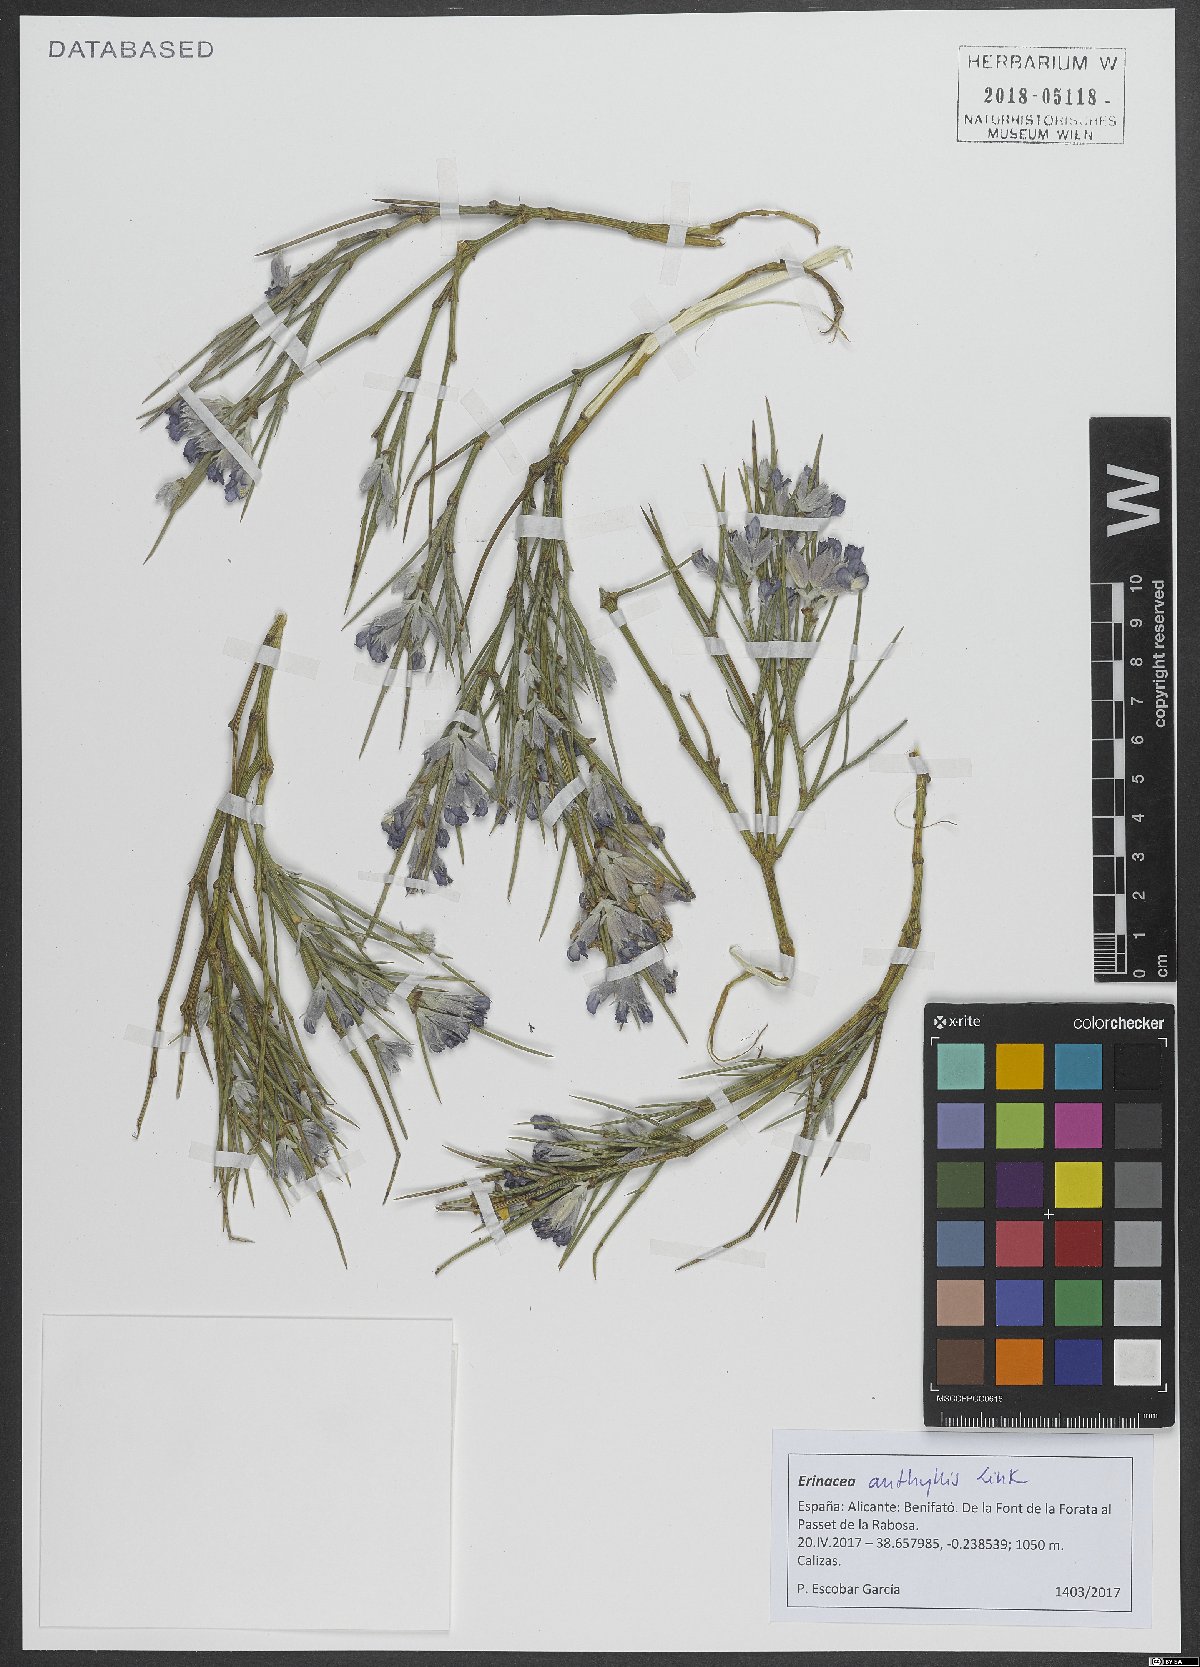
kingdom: Plantae
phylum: Tracheophyta
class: Magnoliopsida
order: Fabales
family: Fabaceae
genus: Erinacea
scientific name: Erinacea anthyllis
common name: Hedgehog-broom
